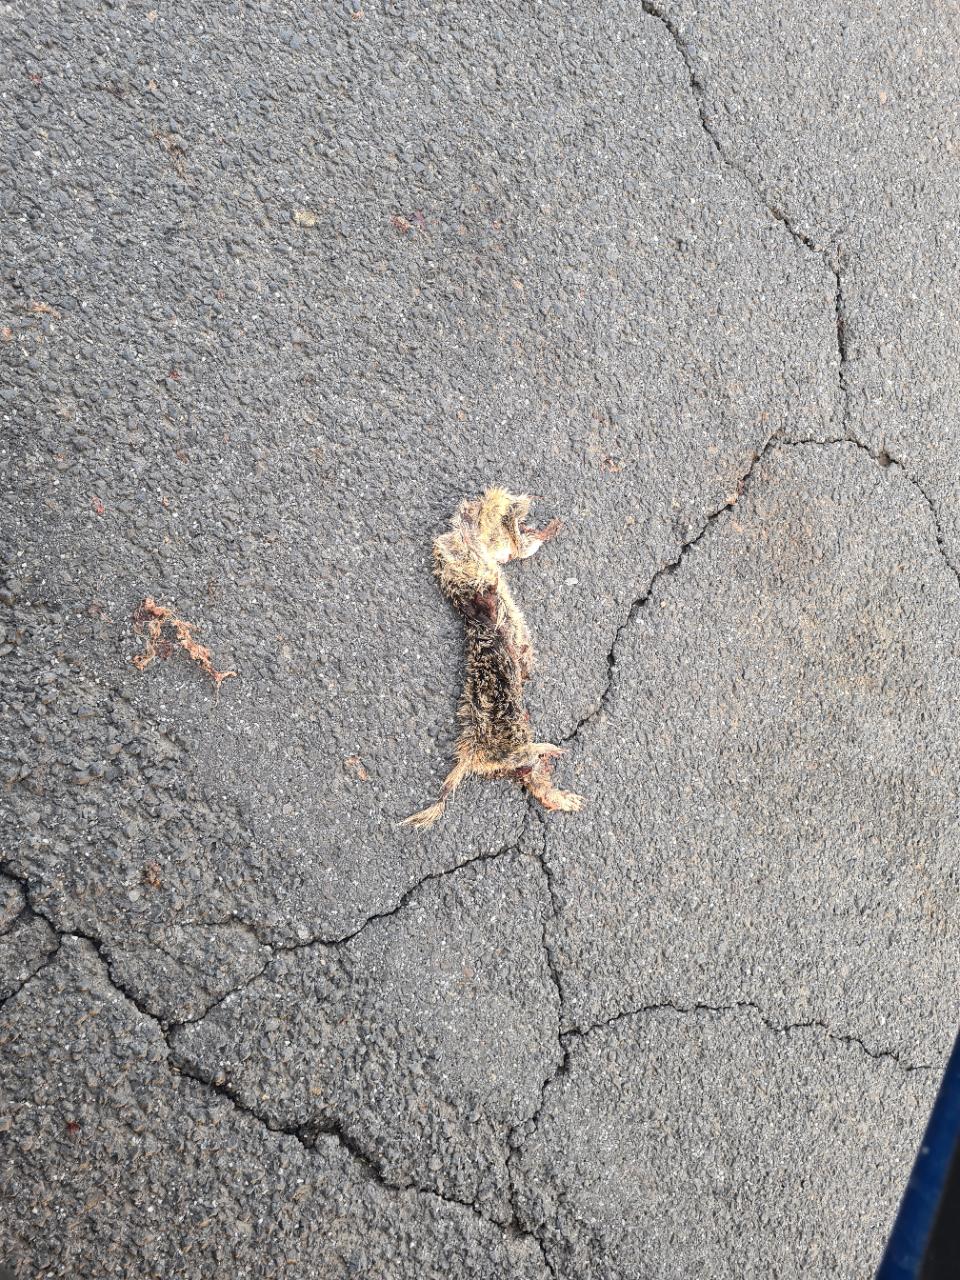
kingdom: Animalia
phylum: Chordata
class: Mammalia
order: Rodentia
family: Sciuridae
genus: Spermophilus
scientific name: Spermophilus citellus
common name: European ground squirrel
